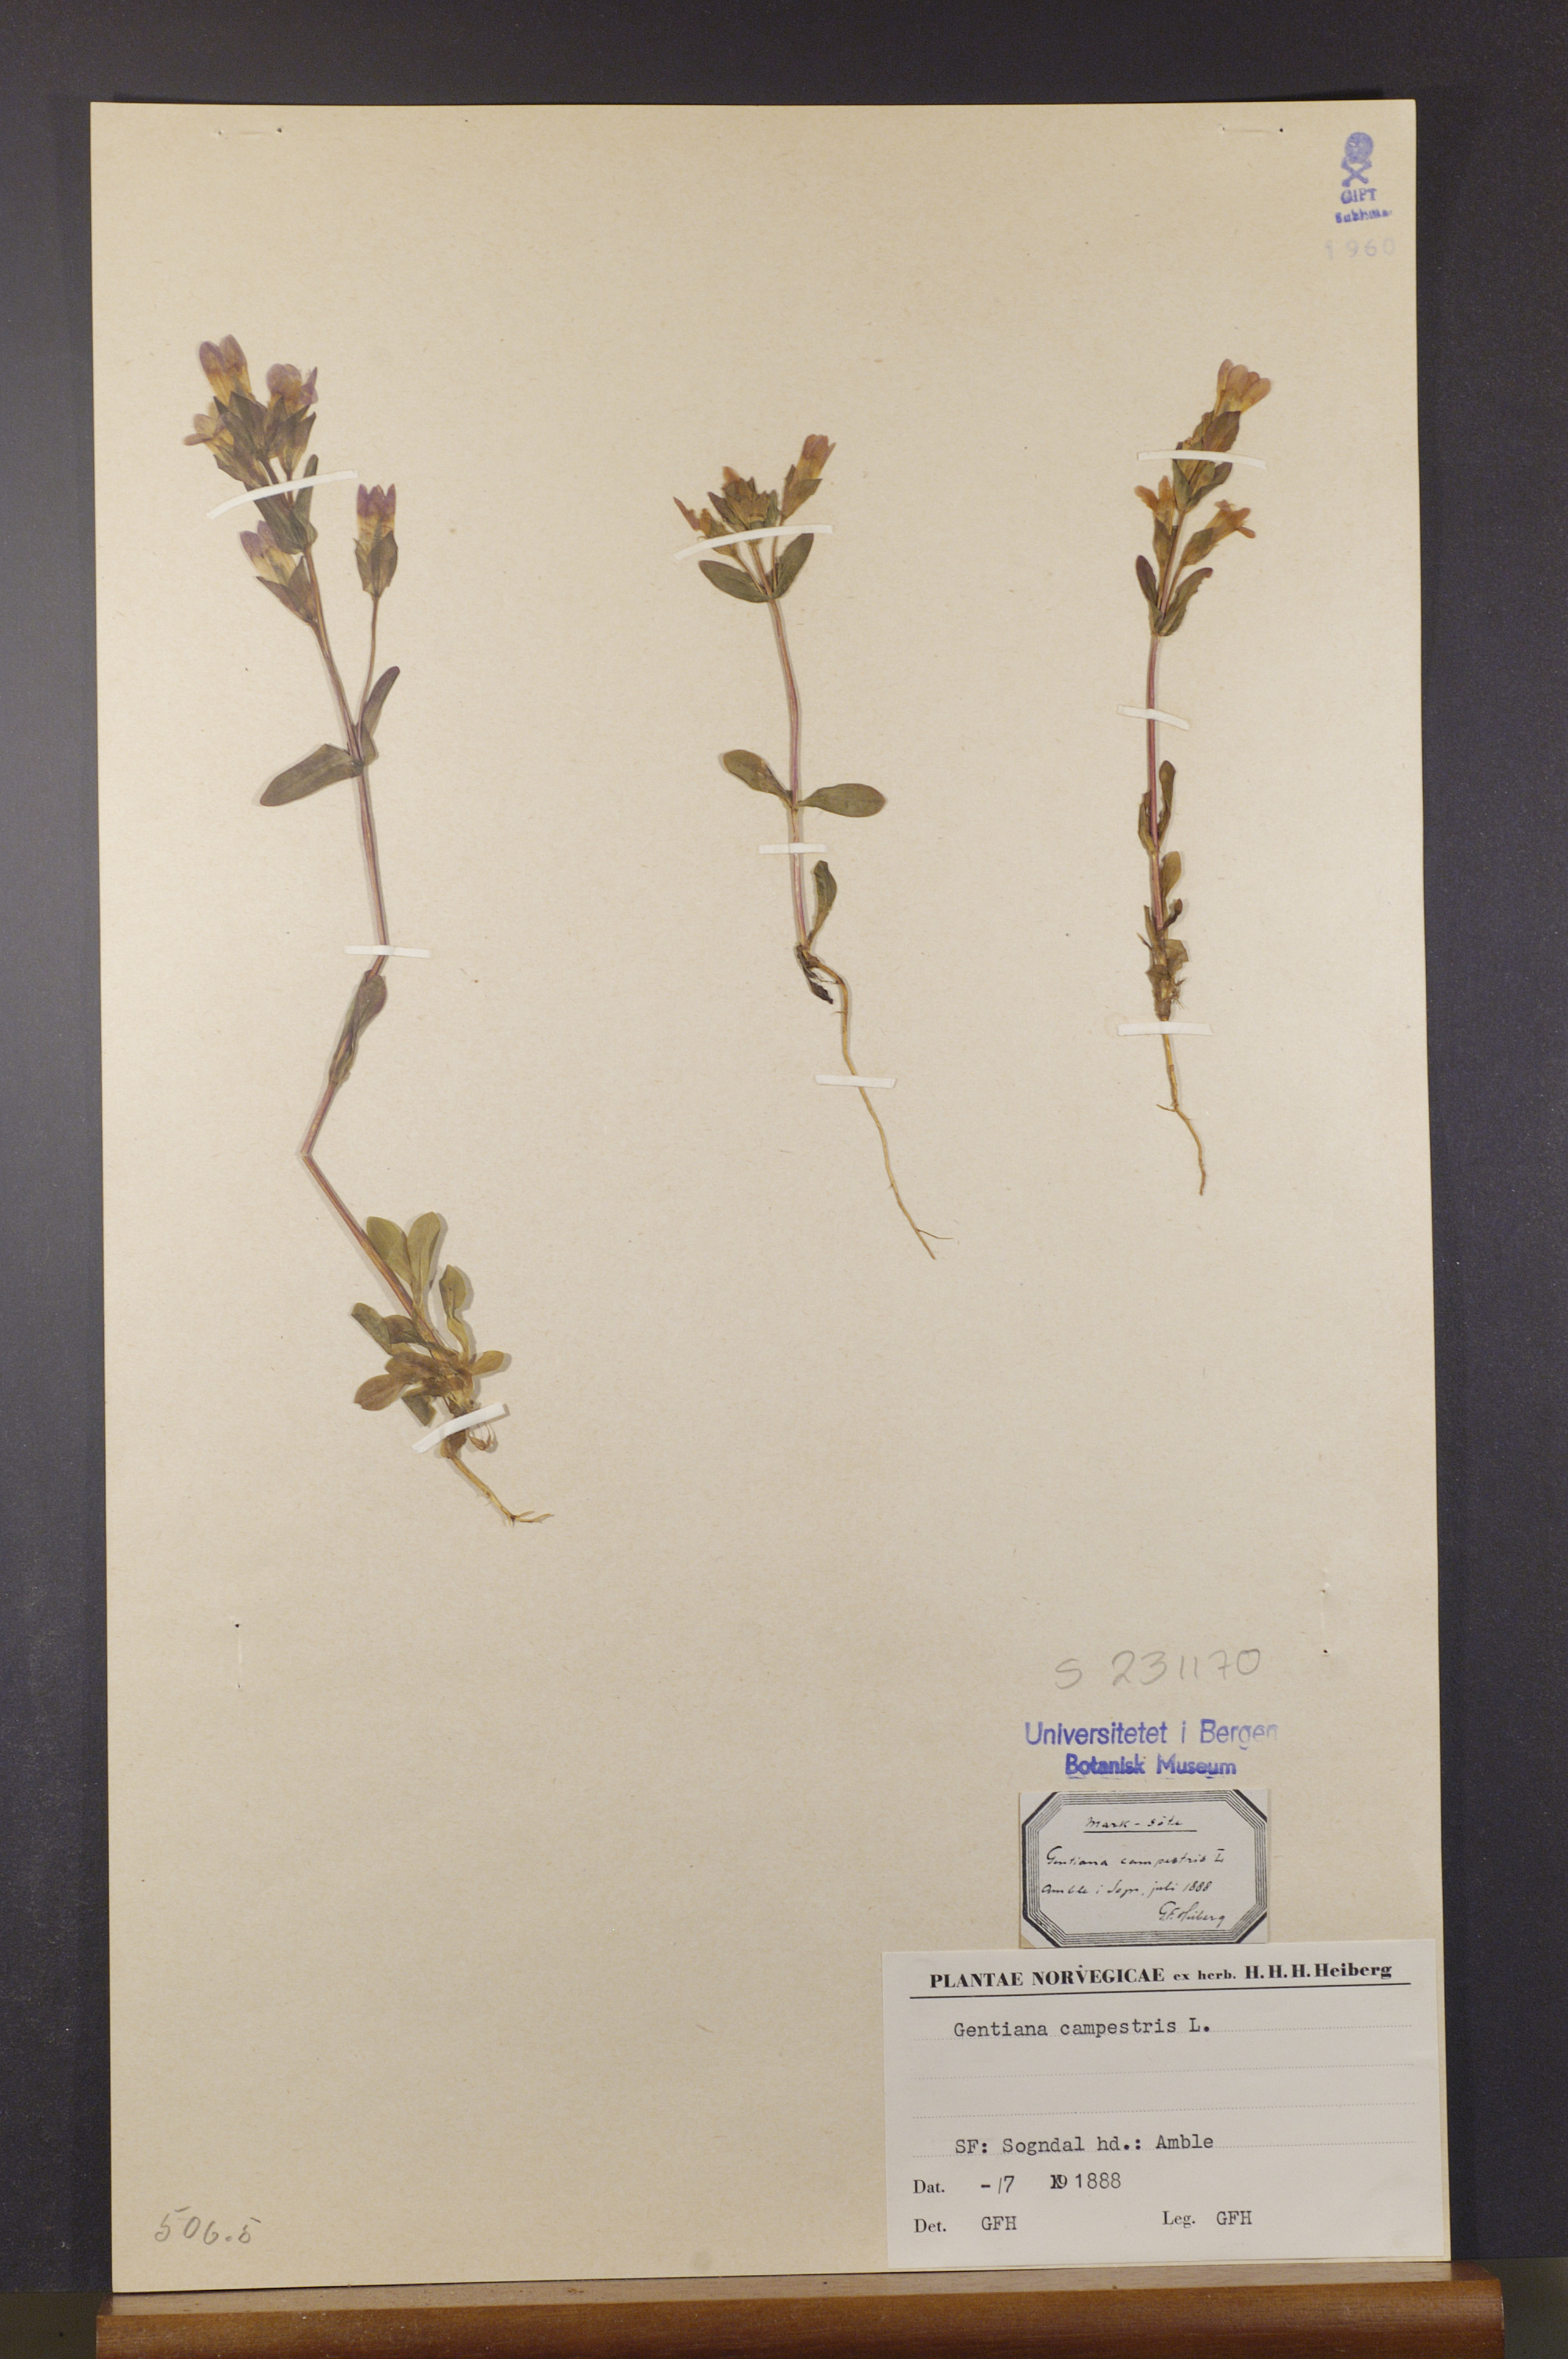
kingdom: Plantae
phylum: Tracheophyta
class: Magnoliopsida
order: Gentianales
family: Gentianaceae
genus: Gentianella
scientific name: Gentianella campestris
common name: Field gentian
